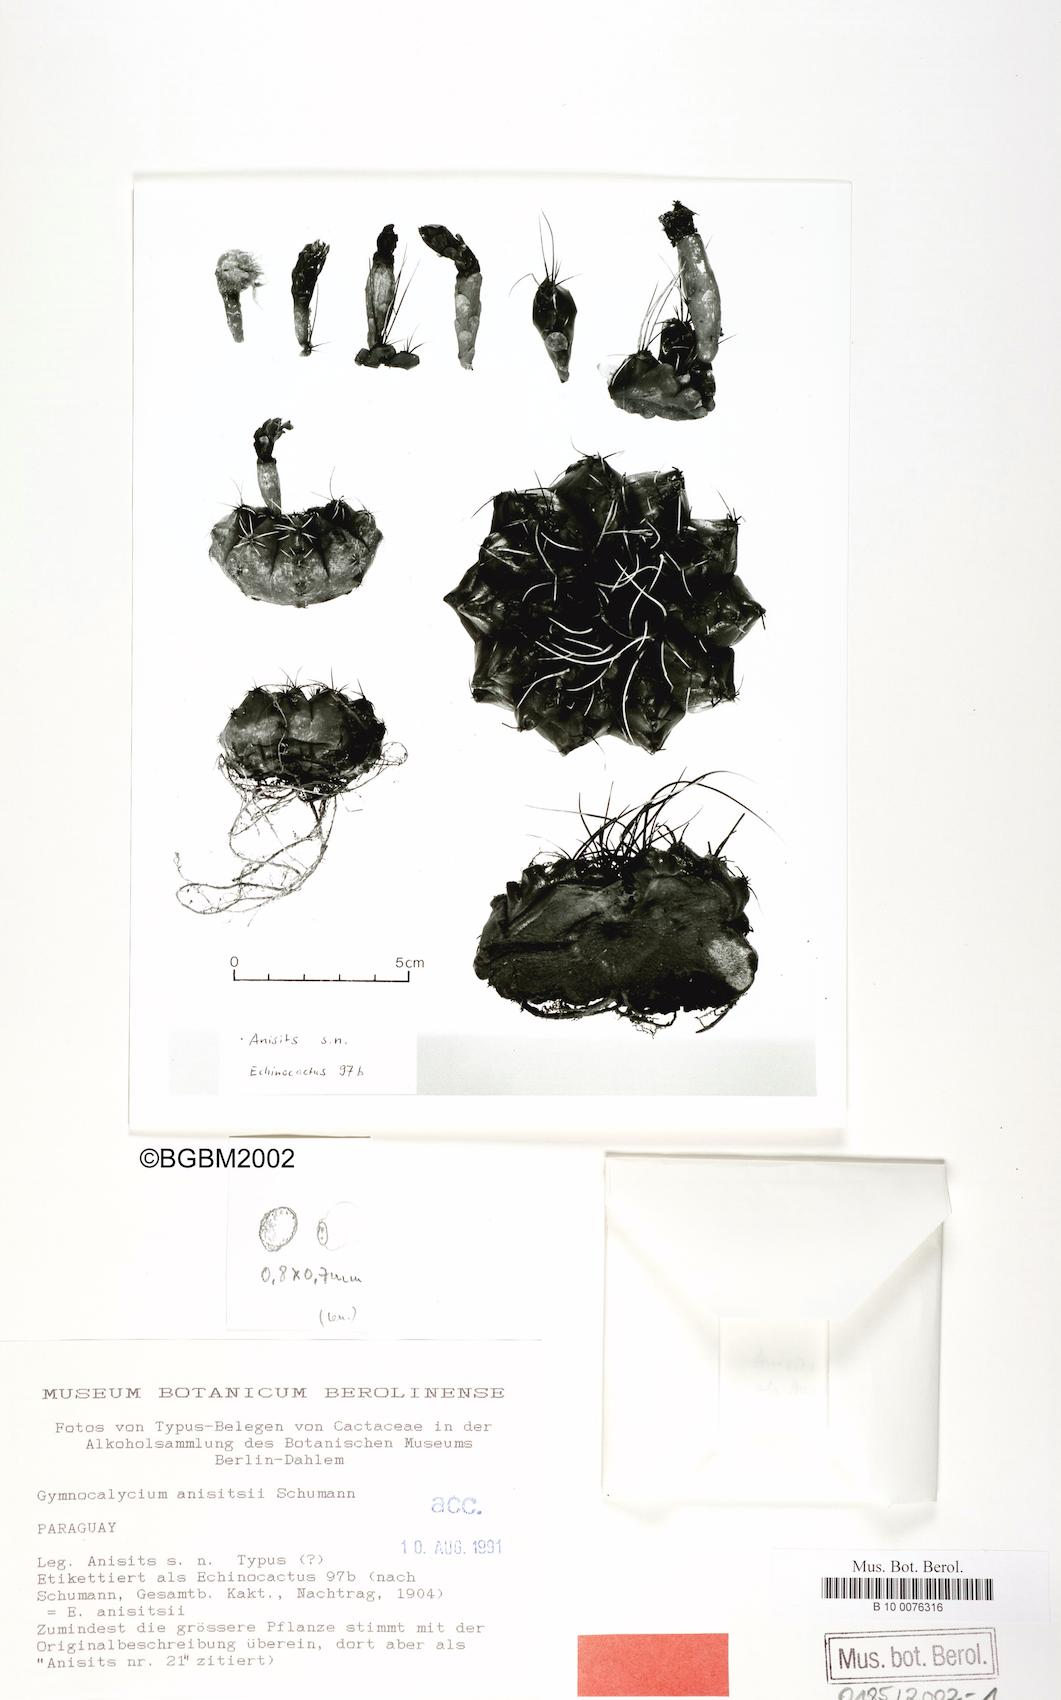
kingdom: Plantae
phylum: Tracheophyta
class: Magnoliopsida
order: Caryophyllales
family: Cactaceae
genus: Gymnocalycium
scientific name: Gymnocalycium anisitsii
